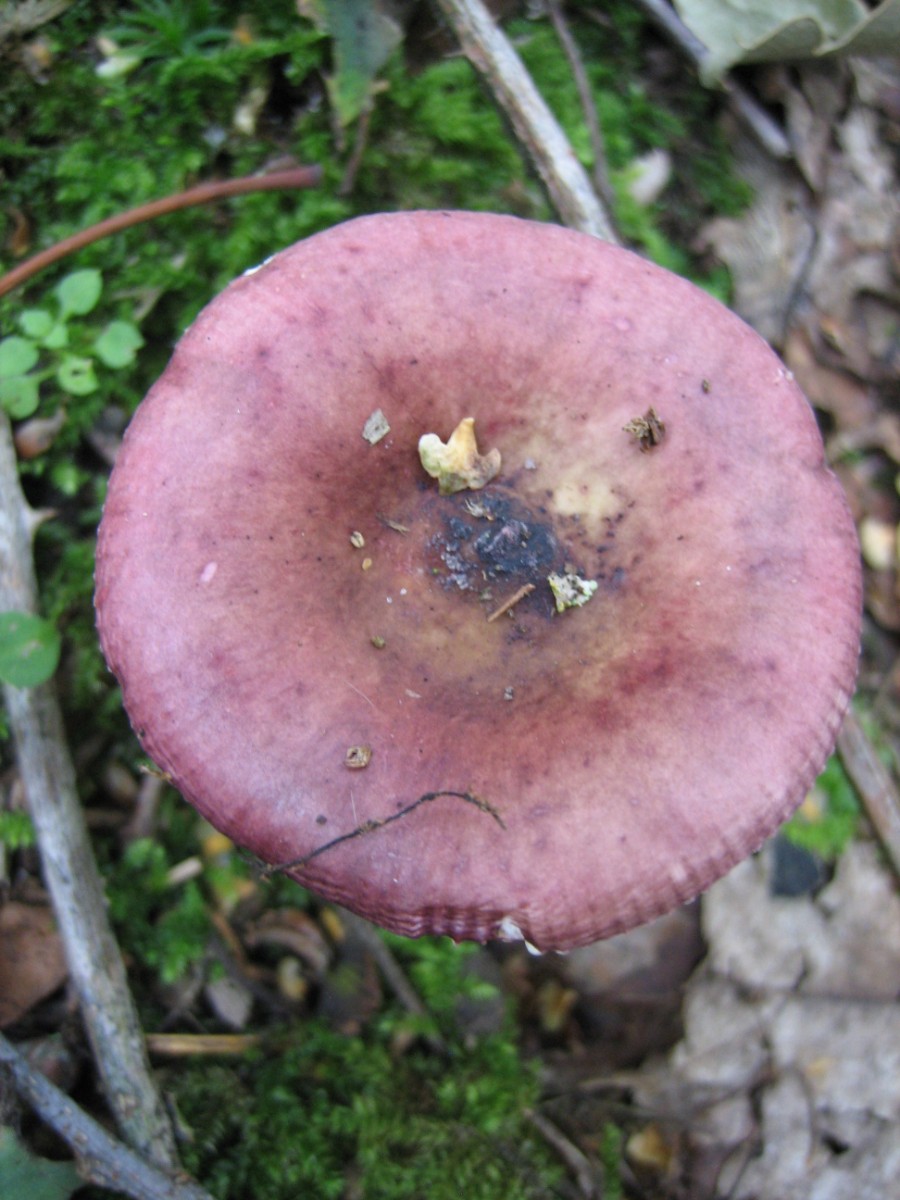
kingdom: Fungi
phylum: Basidiomycota
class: Agaricomycetes
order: Russulales
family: Russulaceae
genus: Russula
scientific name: Russula
